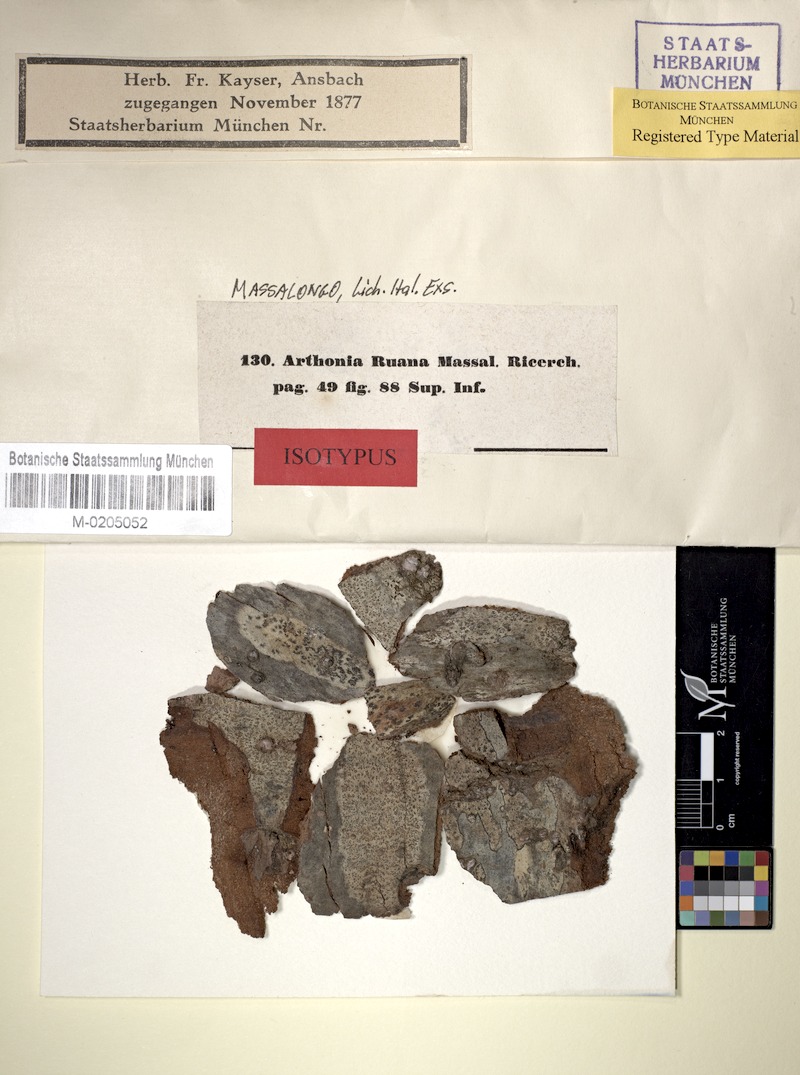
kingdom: Fungi
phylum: Ascomycota
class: Arthoniomycetes
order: Arthoniales
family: Arthoniaceae
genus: Arthothelium
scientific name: Arthothelium ruanum
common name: Jaguar-spot comma lichen
